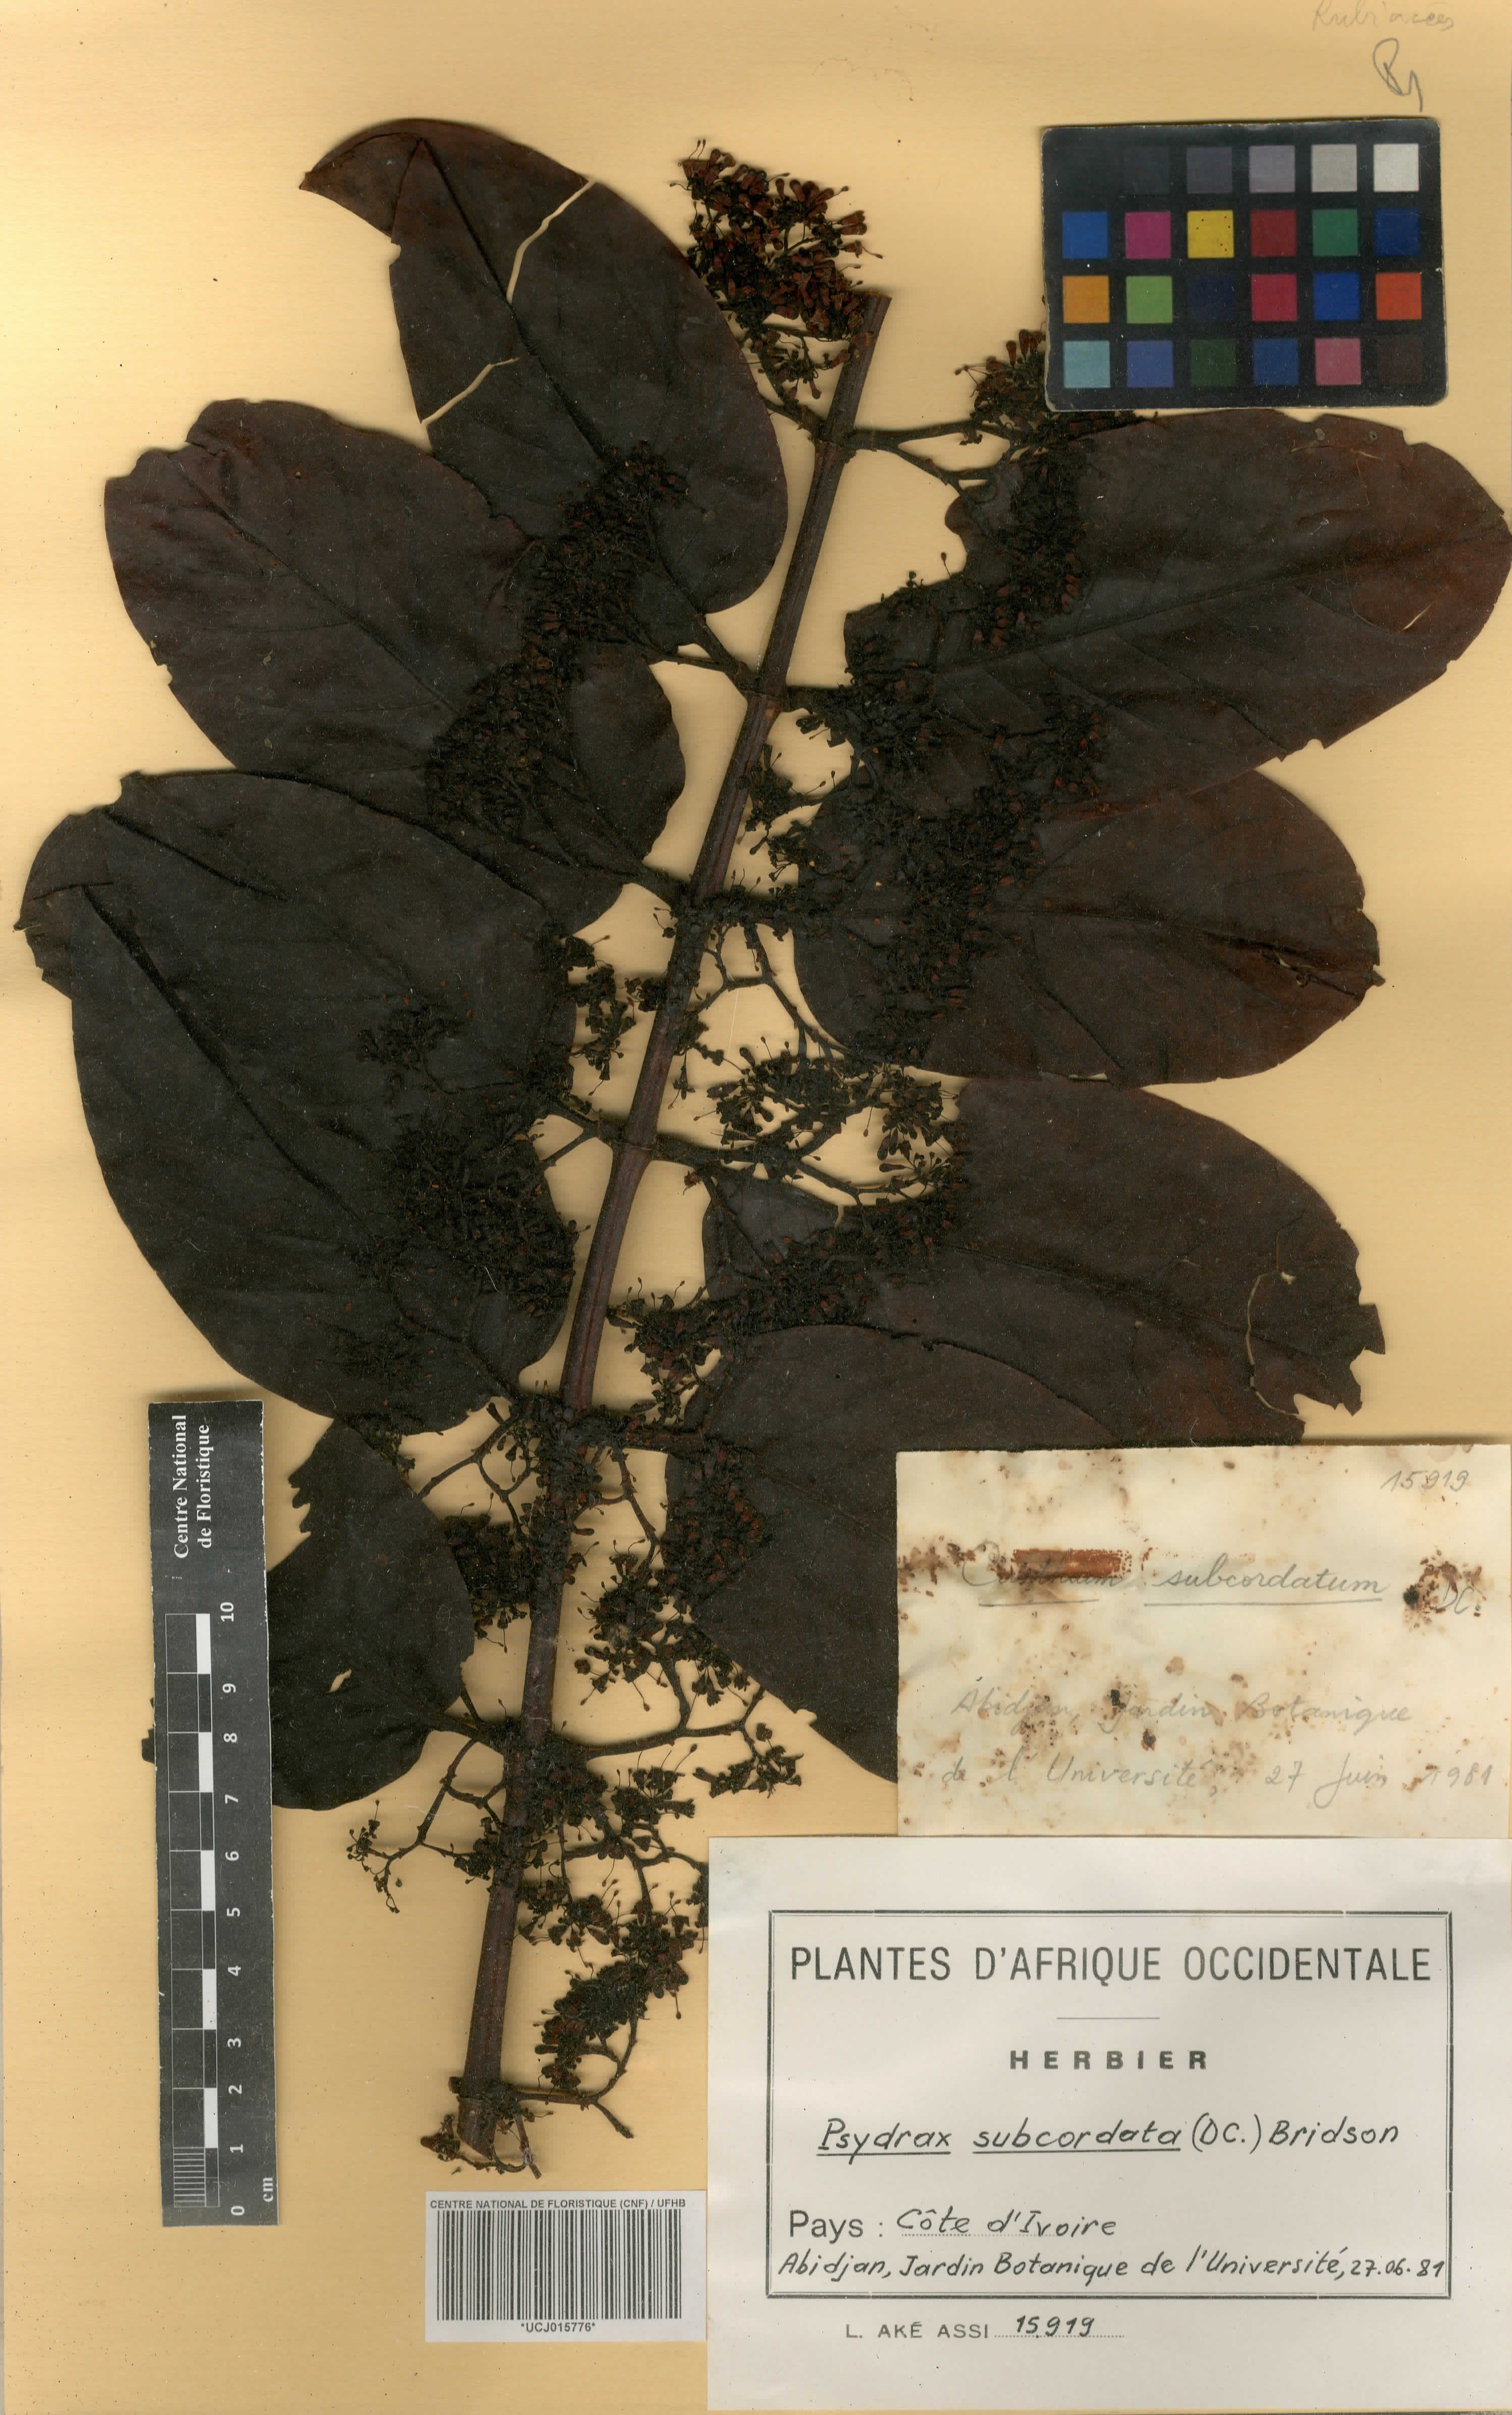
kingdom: Plantae
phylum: Tracheophyta
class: Magnoliopsida
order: Gentianales
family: Rubiaceae
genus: Psydrax
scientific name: Psydrax subcordatus
